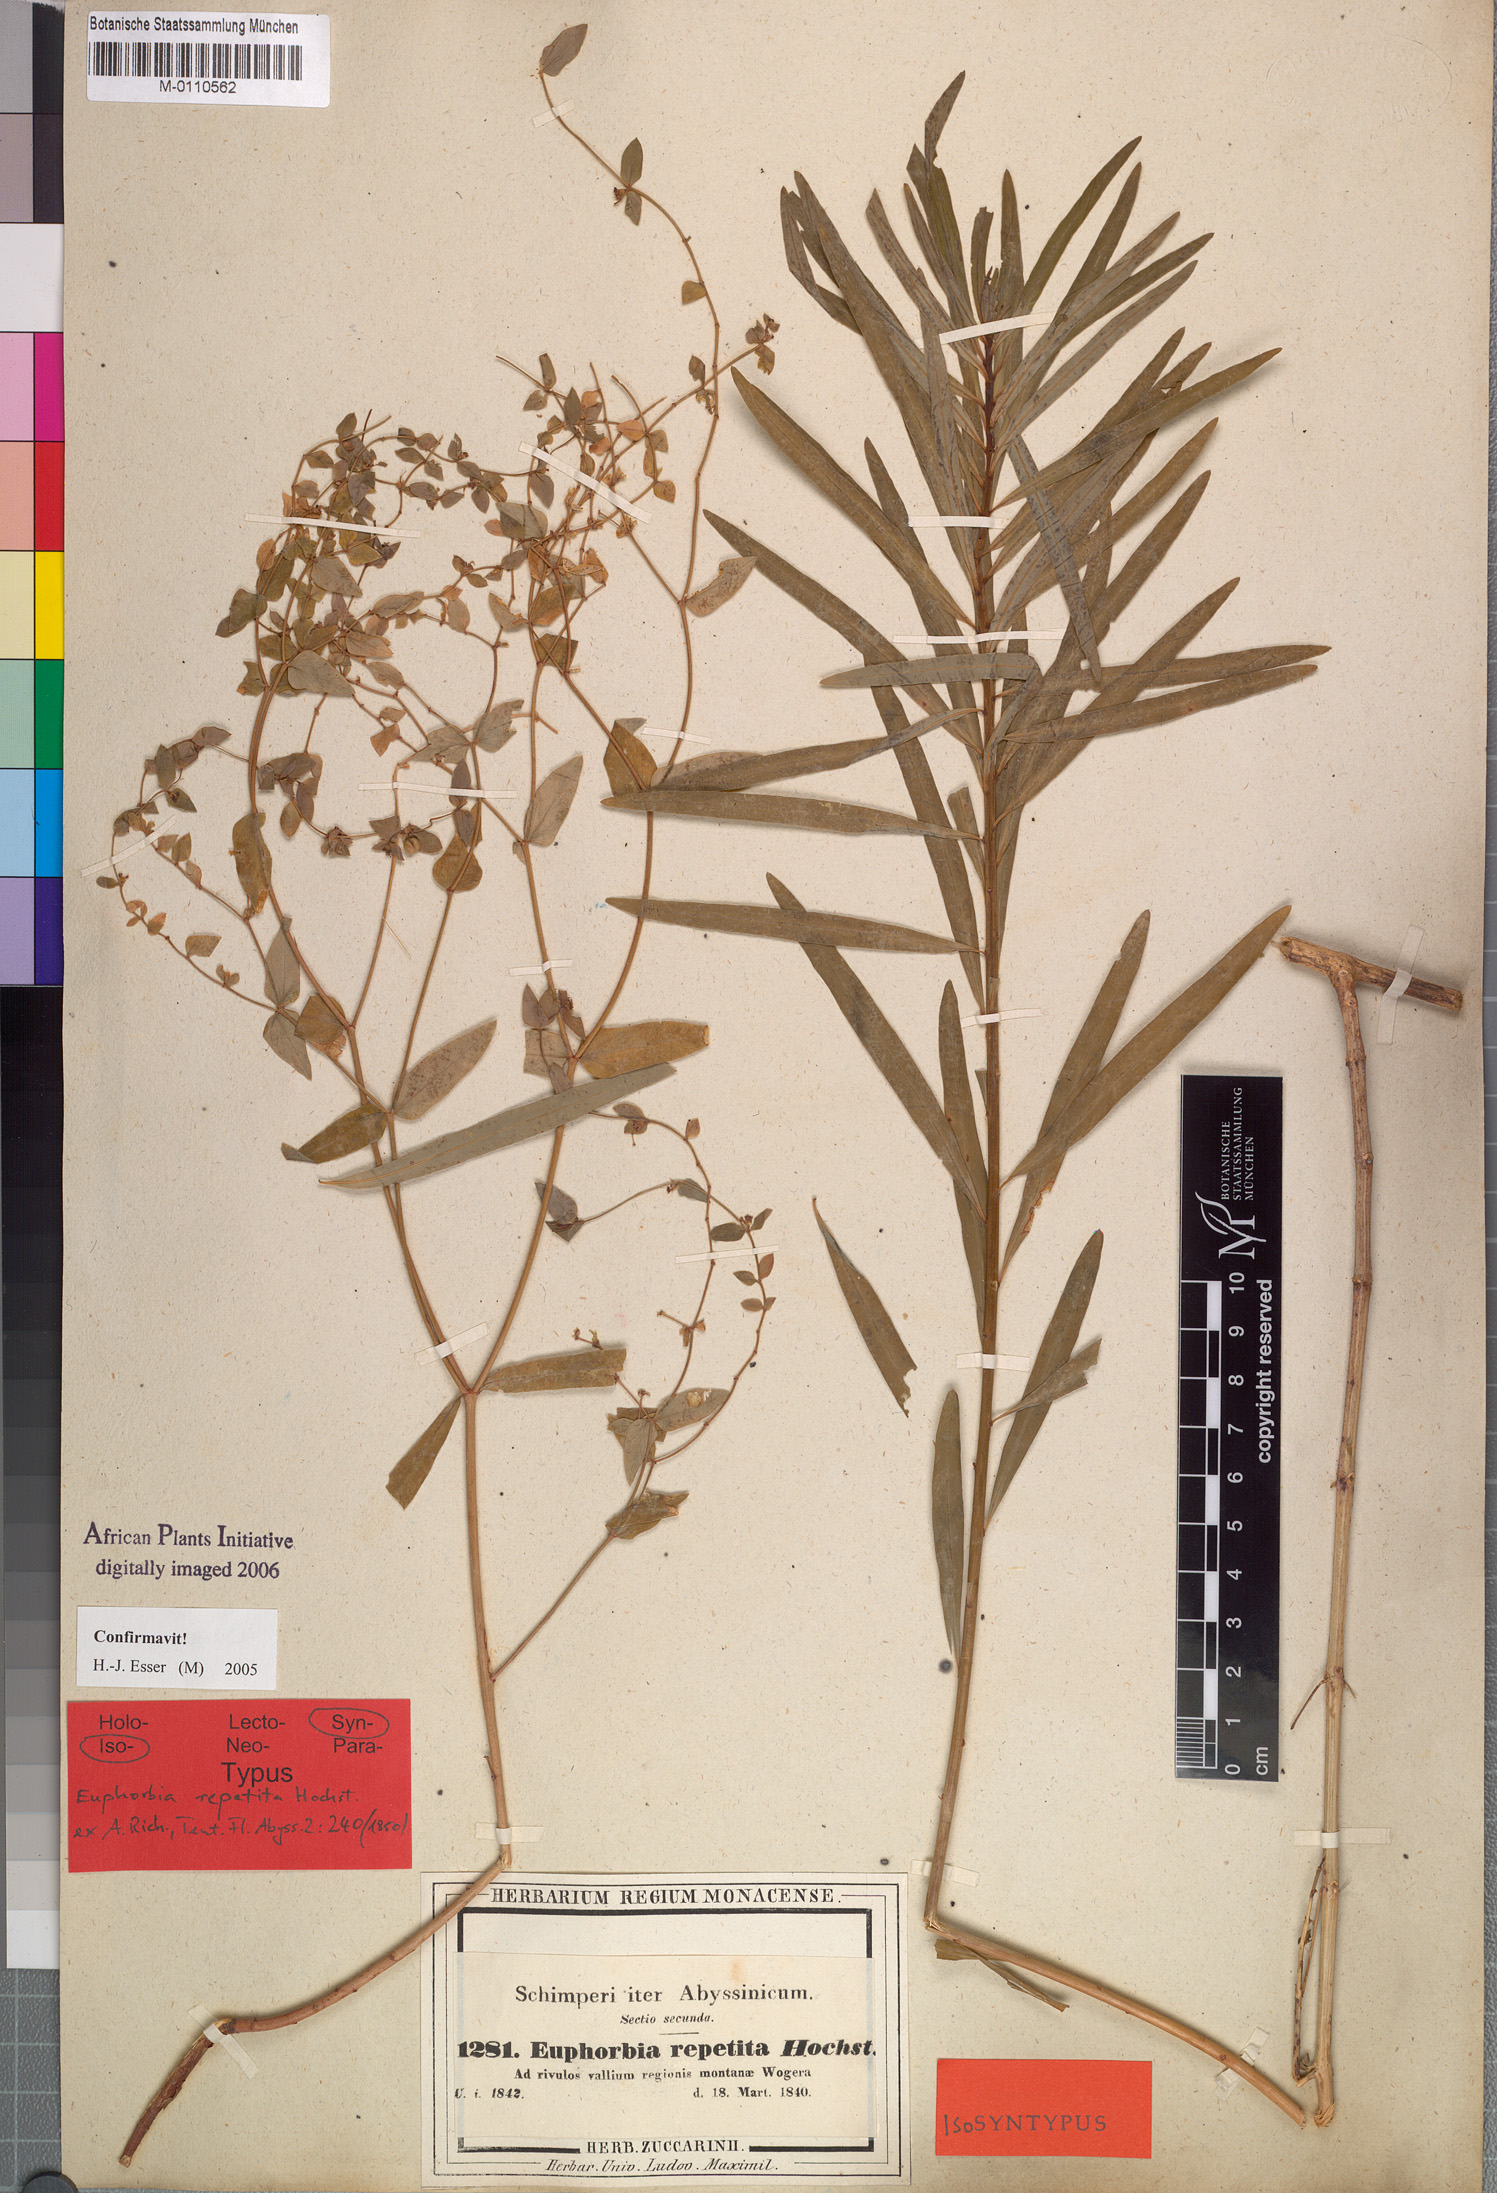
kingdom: Plantae
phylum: Tracheophyta
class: Magnoliopsida
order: Malpighiales
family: Euphorbiaceae
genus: Euphorbia
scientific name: Euphorbia repetita
